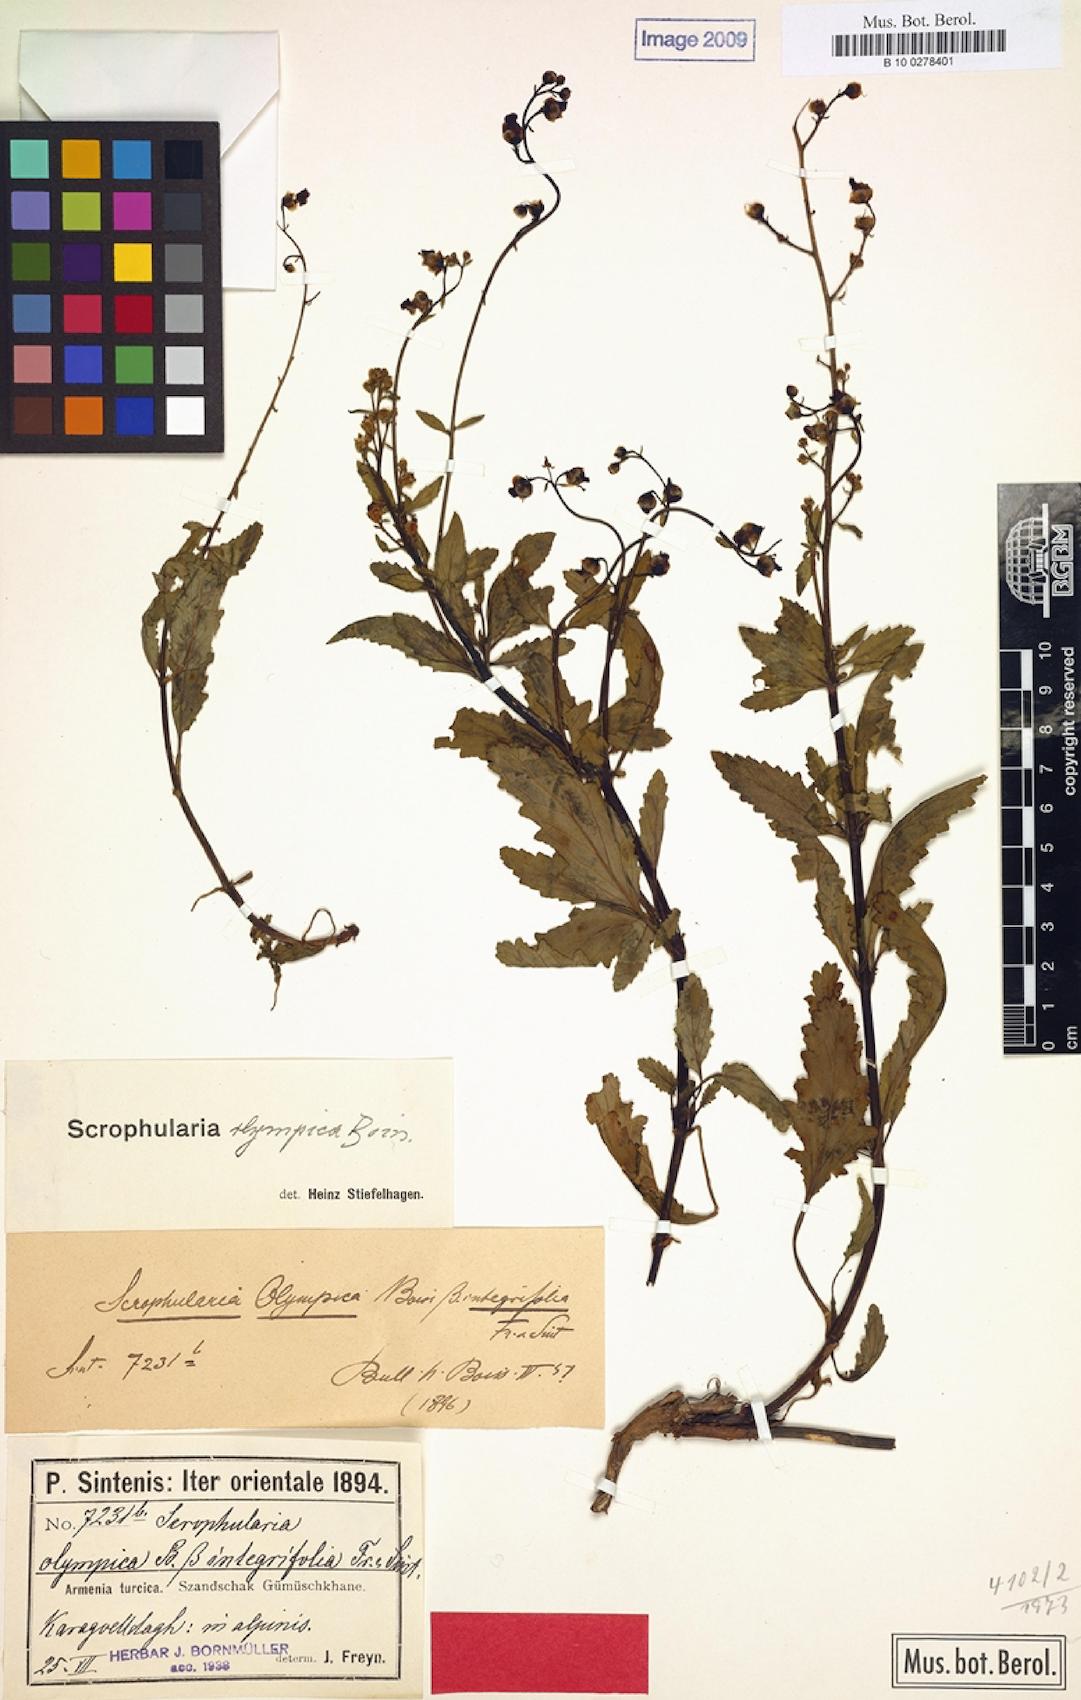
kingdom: Plantae
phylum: Tracheophyta
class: Magnoliopsida
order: Lamiales
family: Scrophulariaceae
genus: Scrophularia
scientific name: Scrophularia
